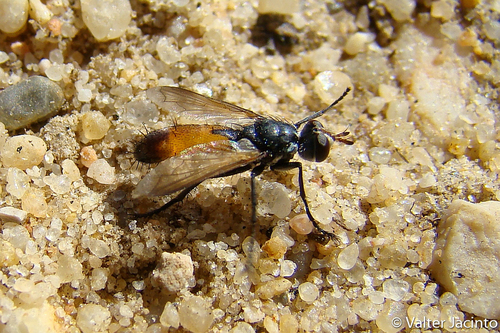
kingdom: Animalia
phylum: Arthropoda
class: Insecta
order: Diptera
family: Tachinidae
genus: Cylindromyia
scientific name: Cylindromyia rufifrons
